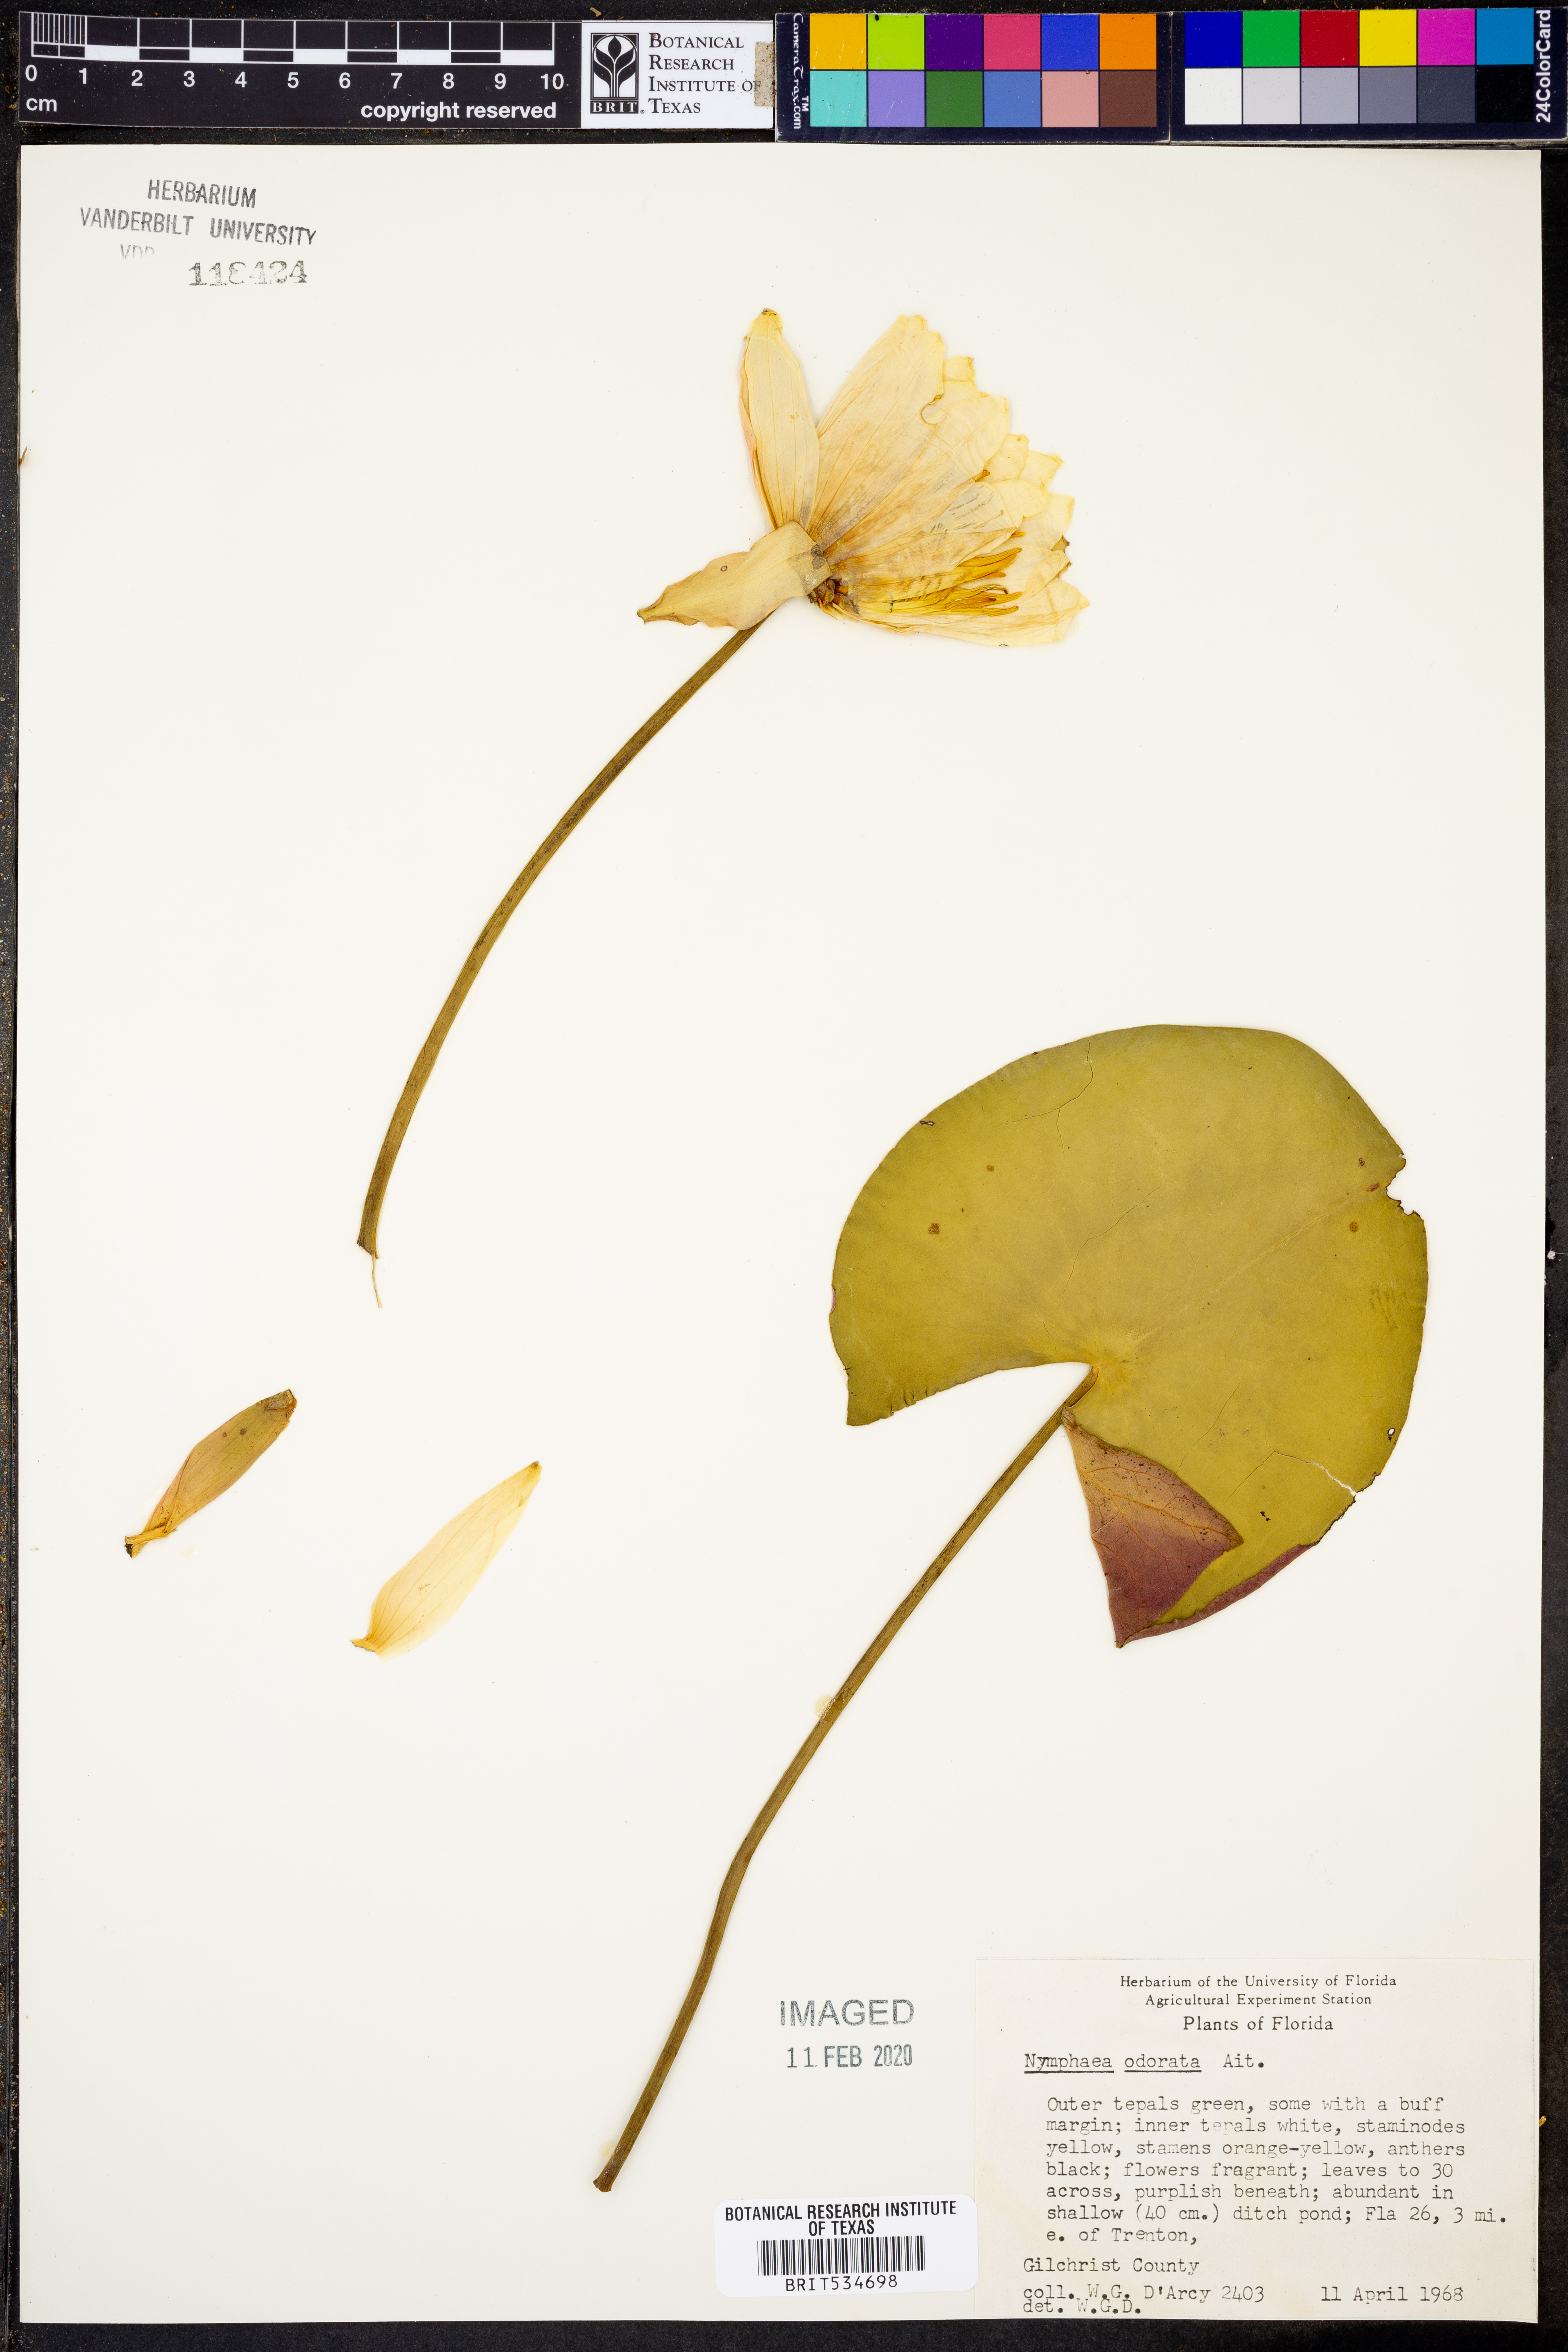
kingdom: Plantae
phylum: Tracheophyta
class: Magnoliopsida
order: Nymphaeales
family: Nymphaeaceae
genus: Nymphaea
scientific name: Nymphaea odorata
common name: Fragrant water-lily
